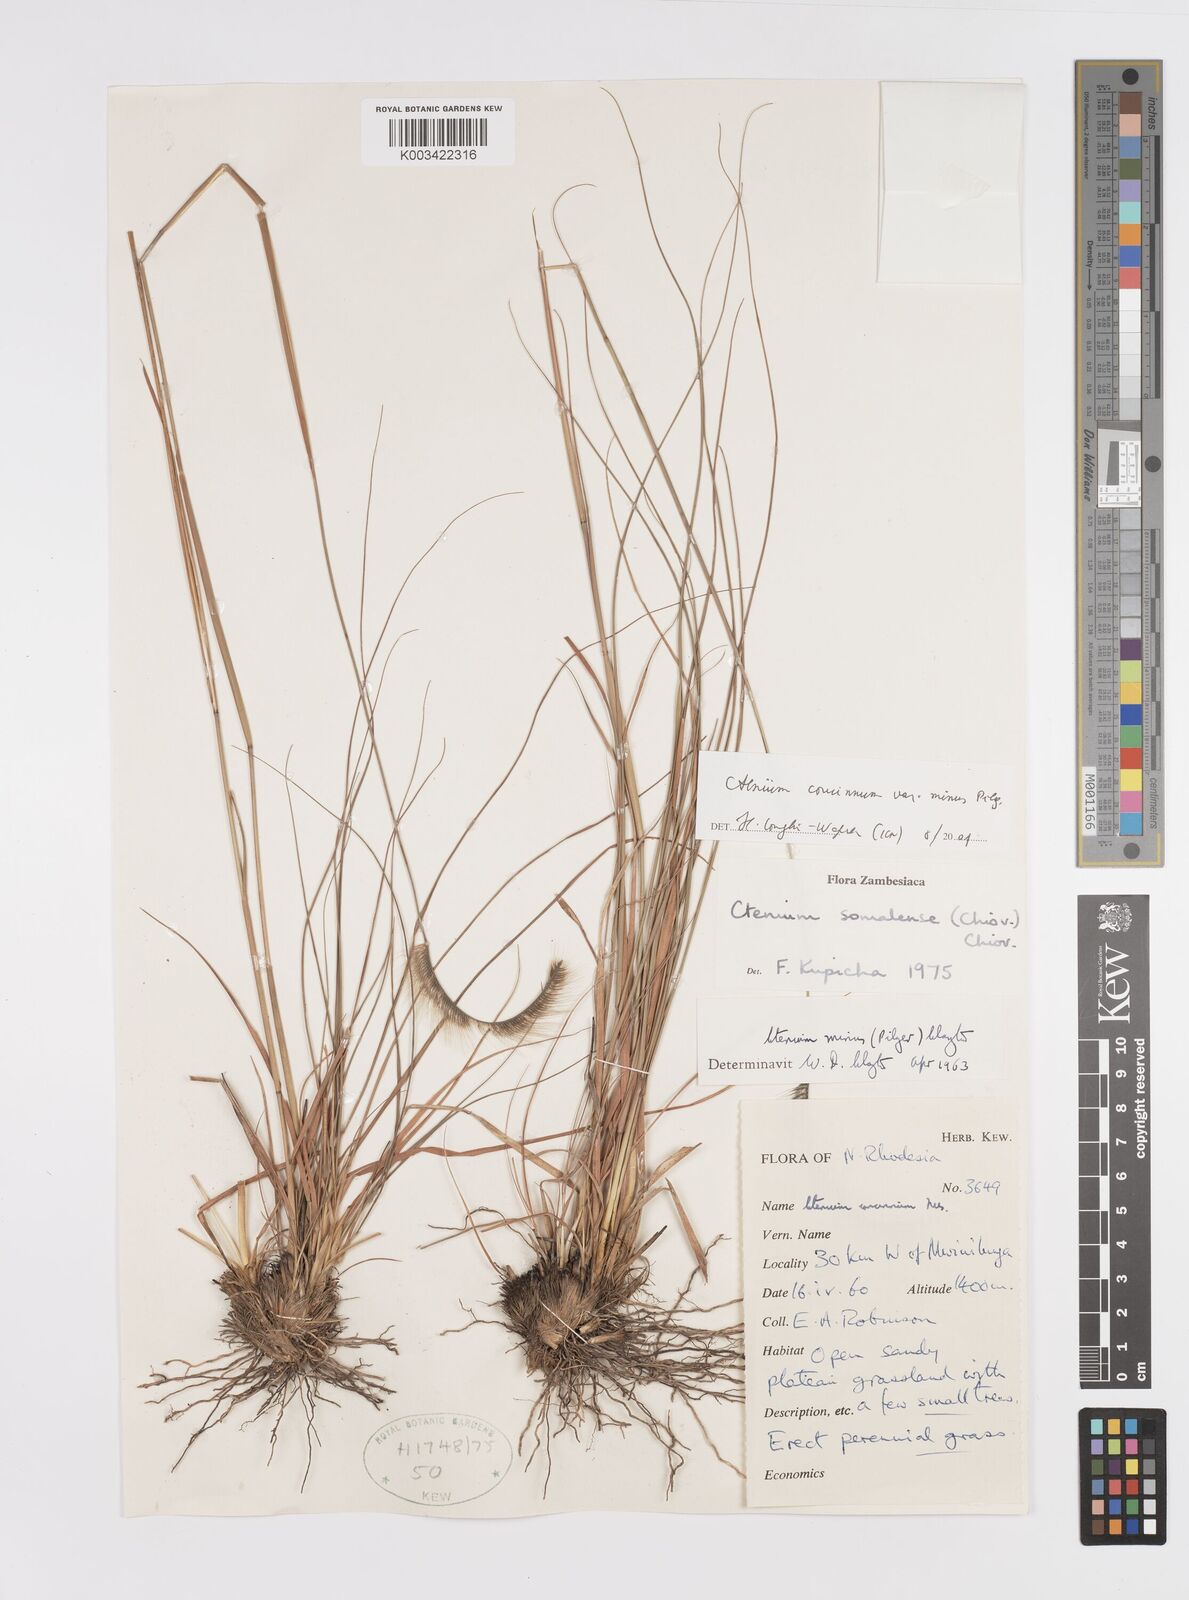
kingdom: Plantae
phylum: Tracheophyta
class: Liliopsida
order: Poales
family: Poaceae
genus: Ctenium
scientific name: Ctenium concinnum
